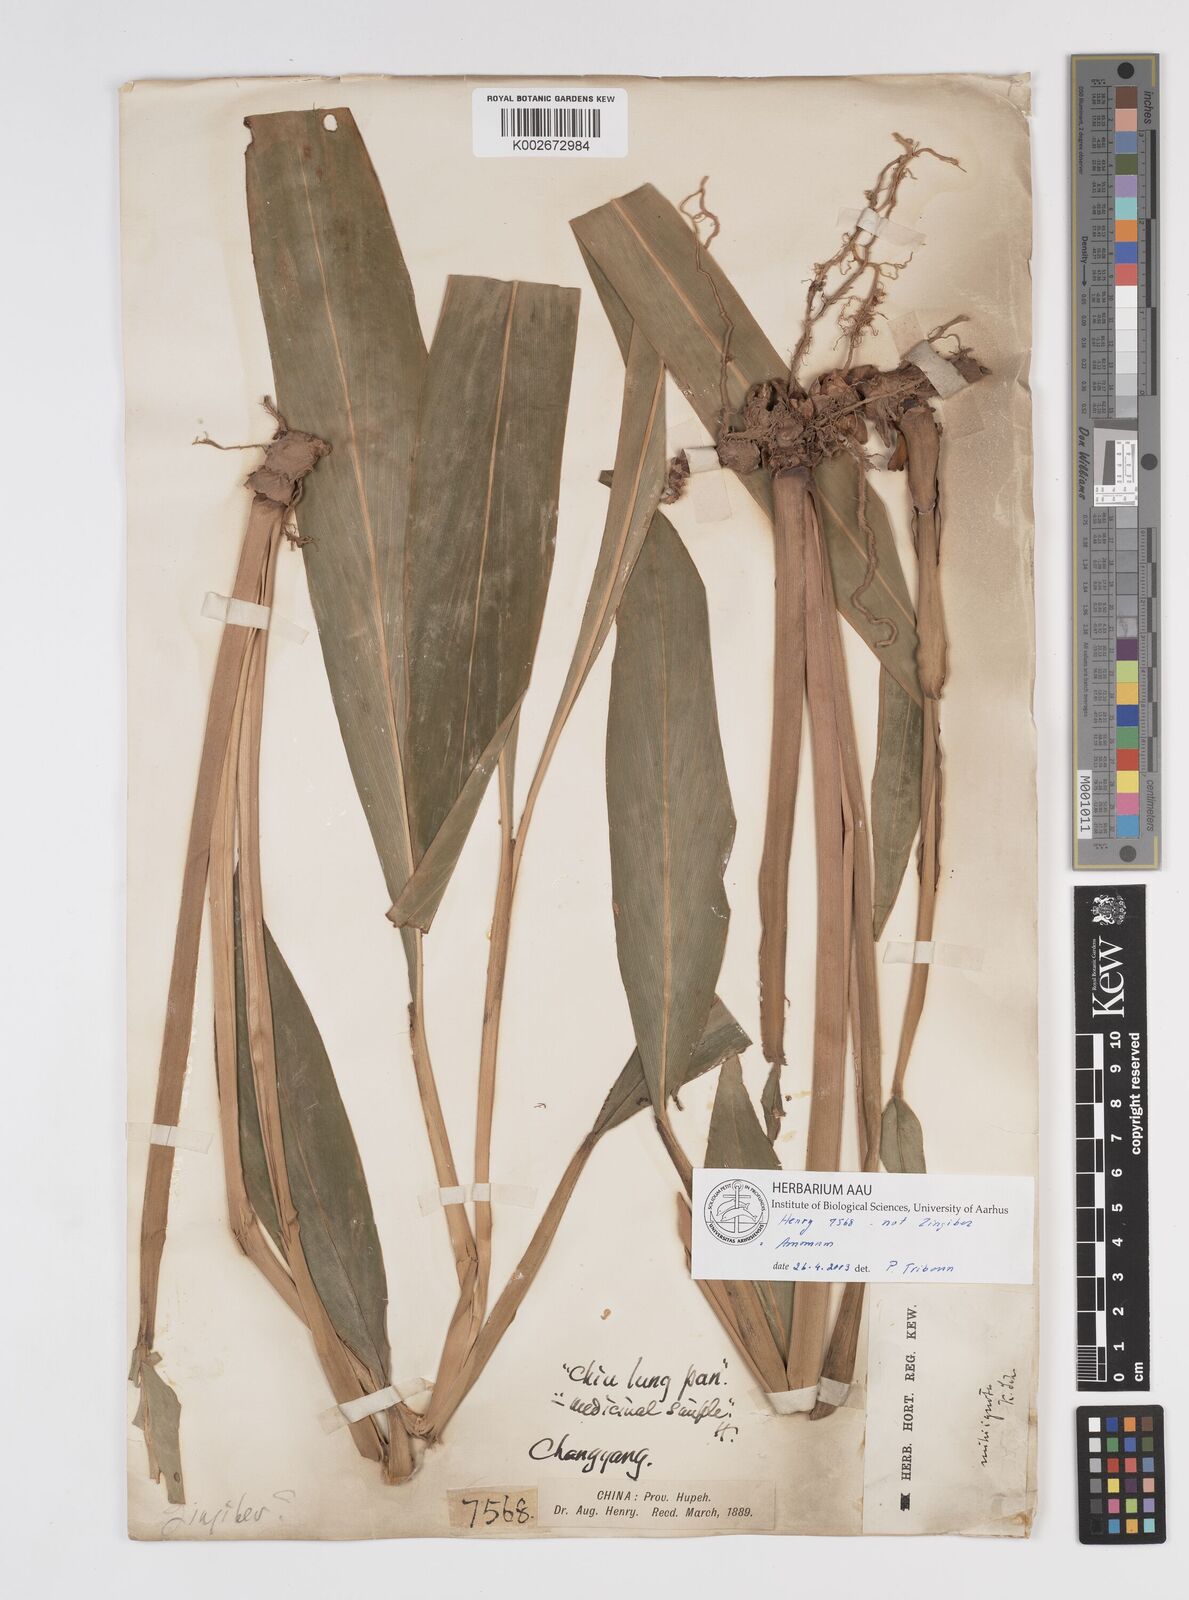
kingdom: Plantae
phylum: Tracheophyta
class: Liliopsida
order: Zingiberales
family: Zingiberaceae
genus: Amomum
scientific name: Amomum
